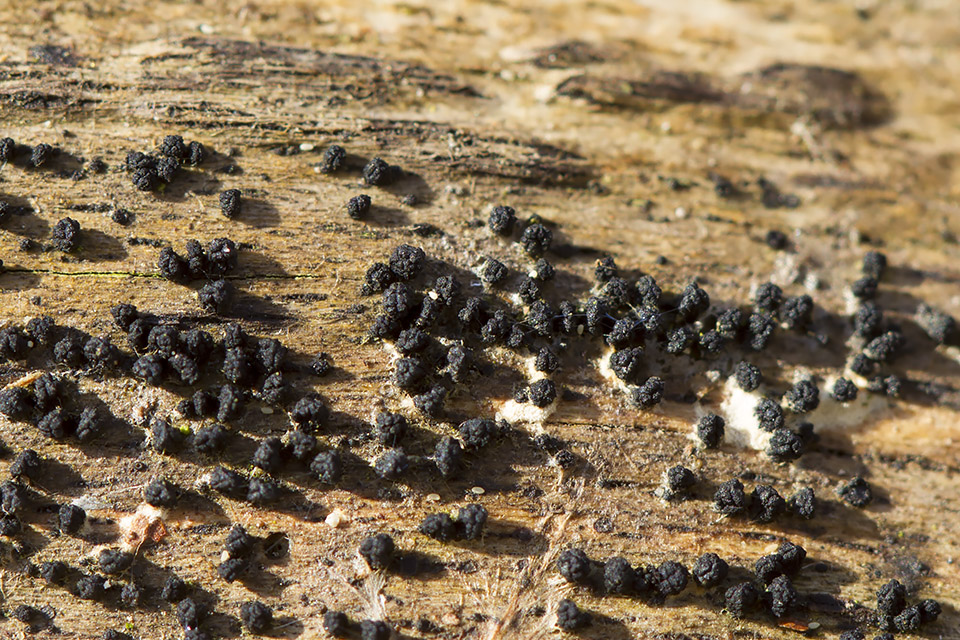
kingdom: Fungi
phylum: Ascomycota
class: Sordariomycetes
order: Coronophorales
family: Bertiaceae
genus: Bertia
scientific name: Bertia moriformis
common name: almindelig morbærkerne
